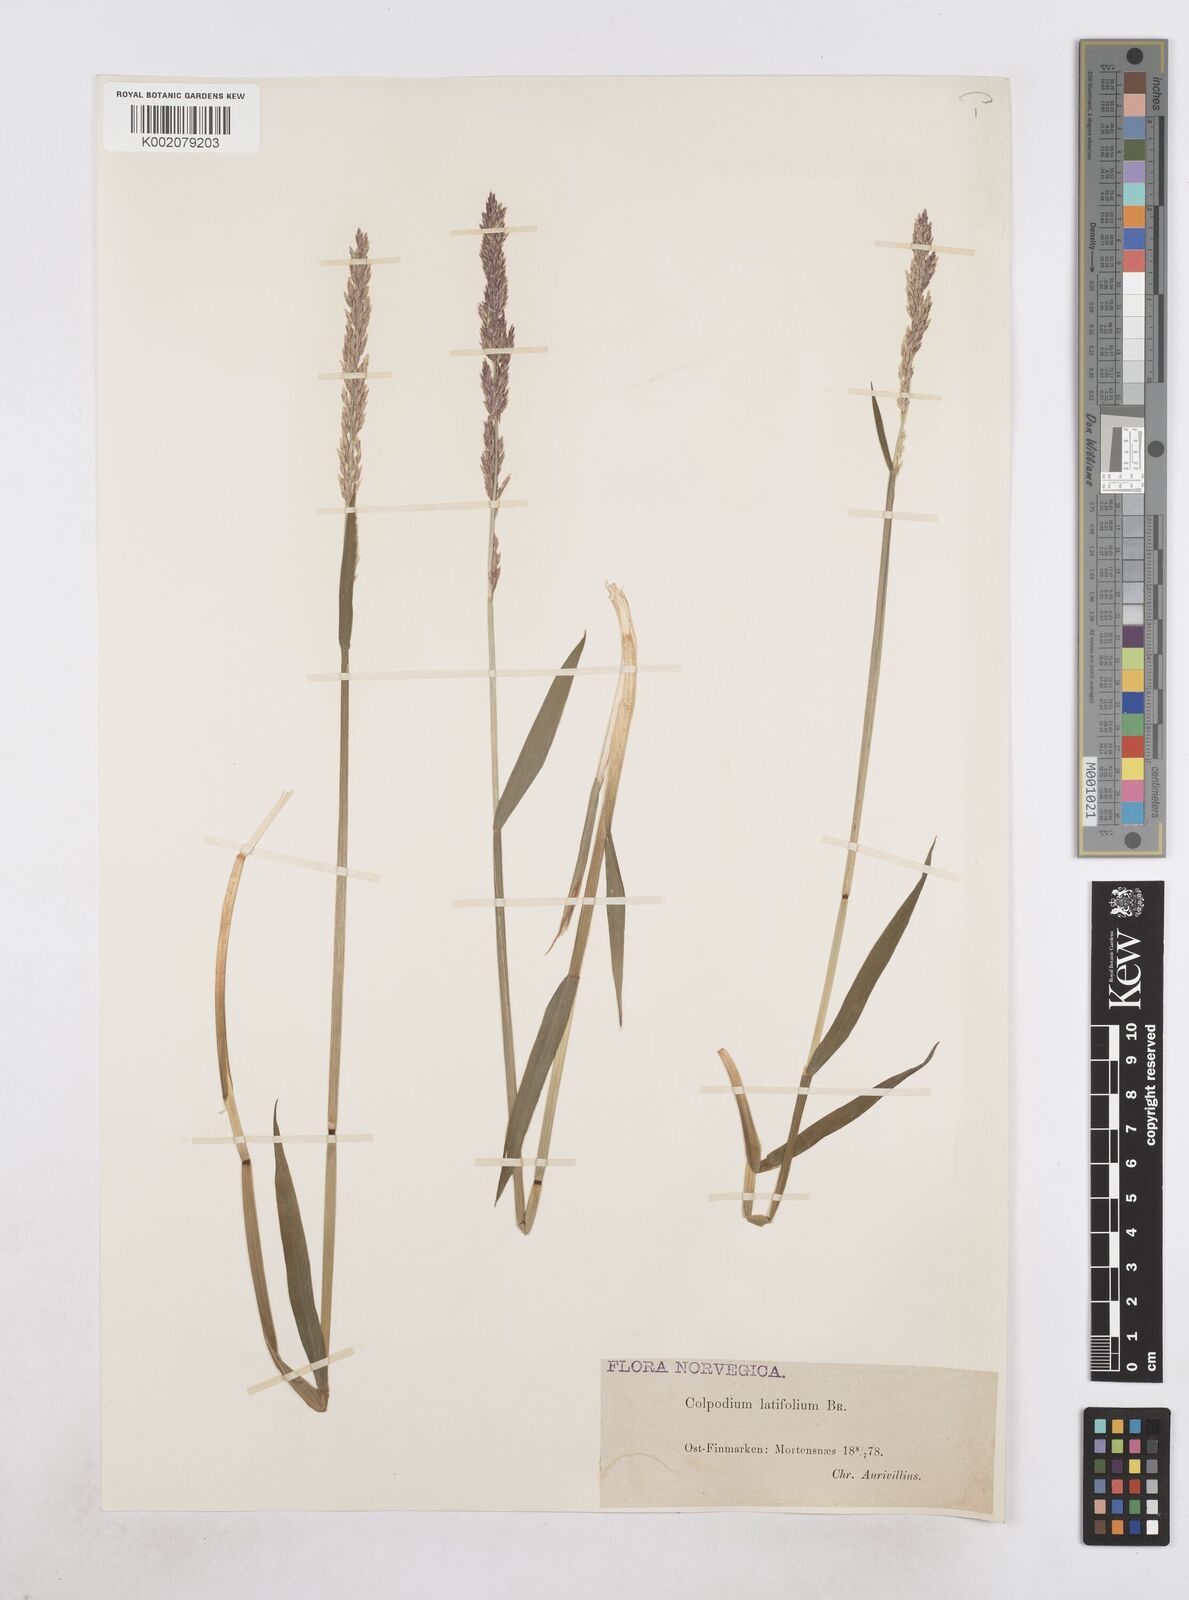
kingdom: Plantae
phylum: Tracheophyta
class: Liliopsida
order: Poales
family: Poaceae
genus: Arctagrostis
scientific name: Arctagrostis latifolia
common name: Arctic grass
